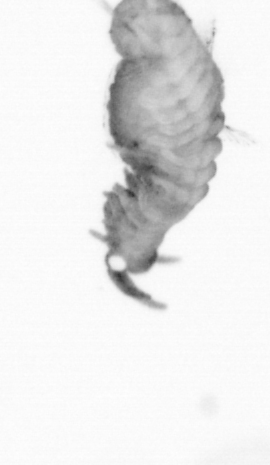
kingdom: Animalia
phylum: Annelida
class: Polychaeta
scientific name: Polychaeta
